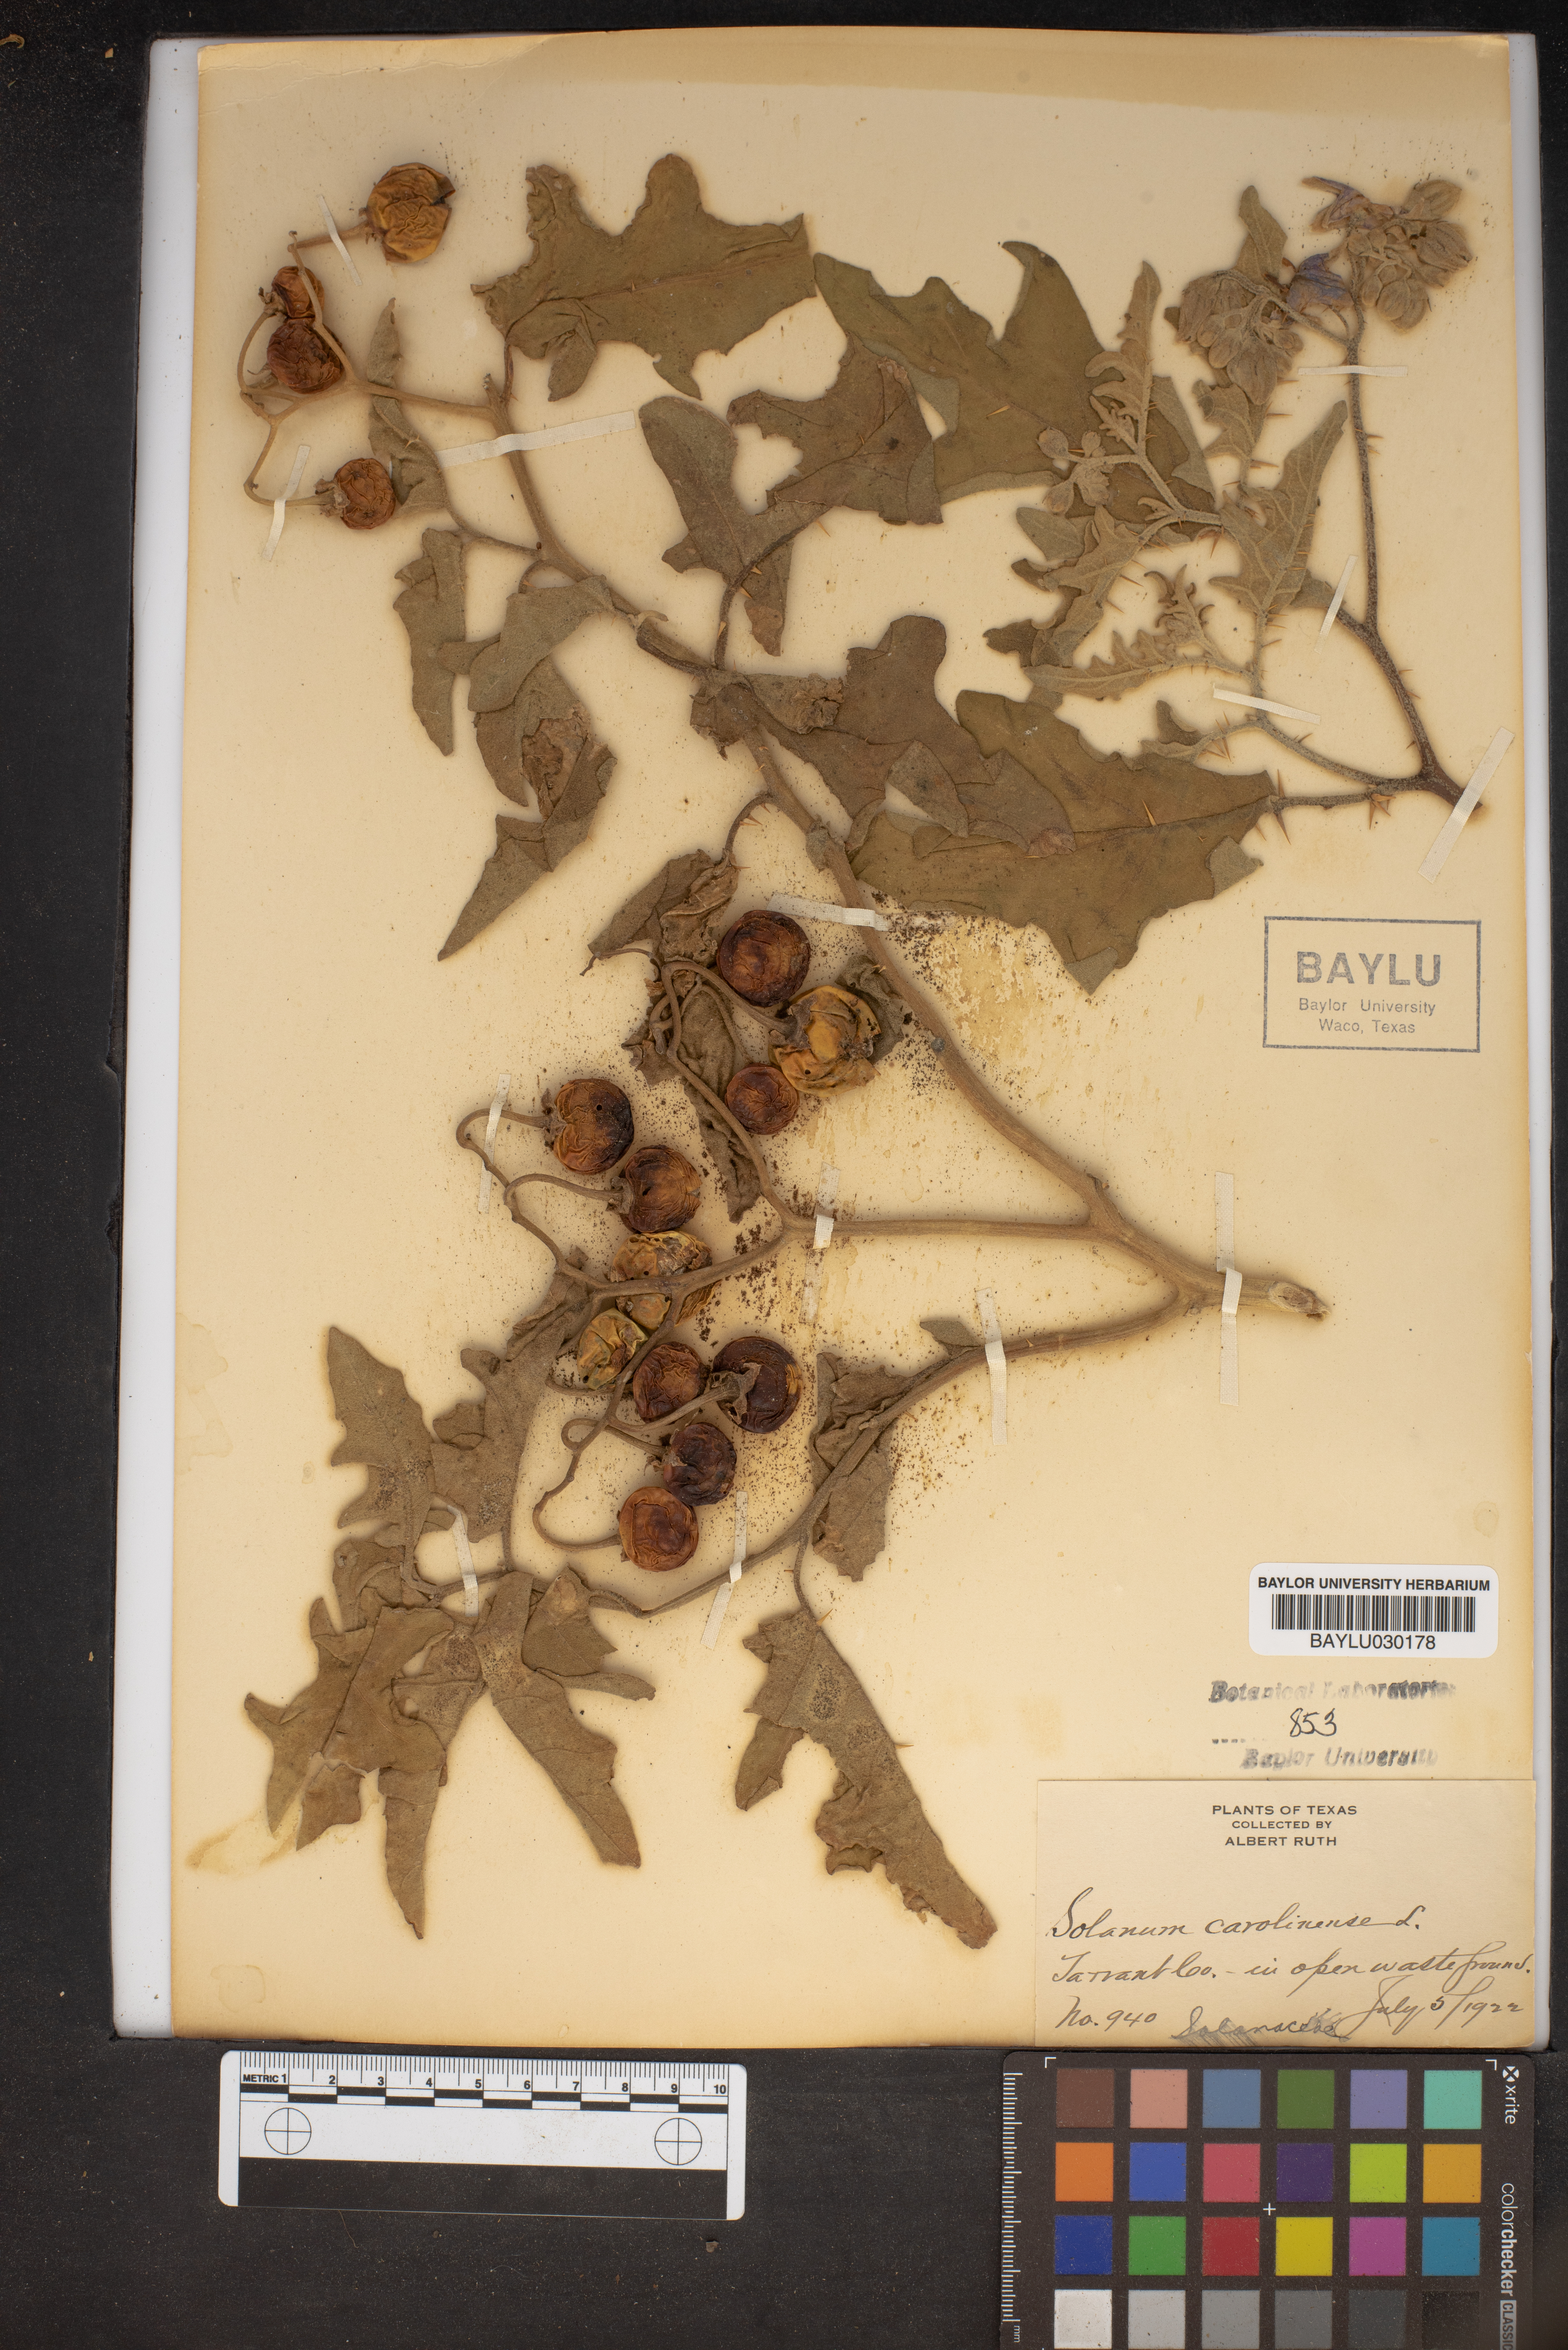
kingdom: Plantae
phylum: Tracheophyta
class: Magnoliopsida
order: Solanales
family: Solanaceae
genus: Solanum
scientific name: Solanum carolinense
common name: Horse-nettle
